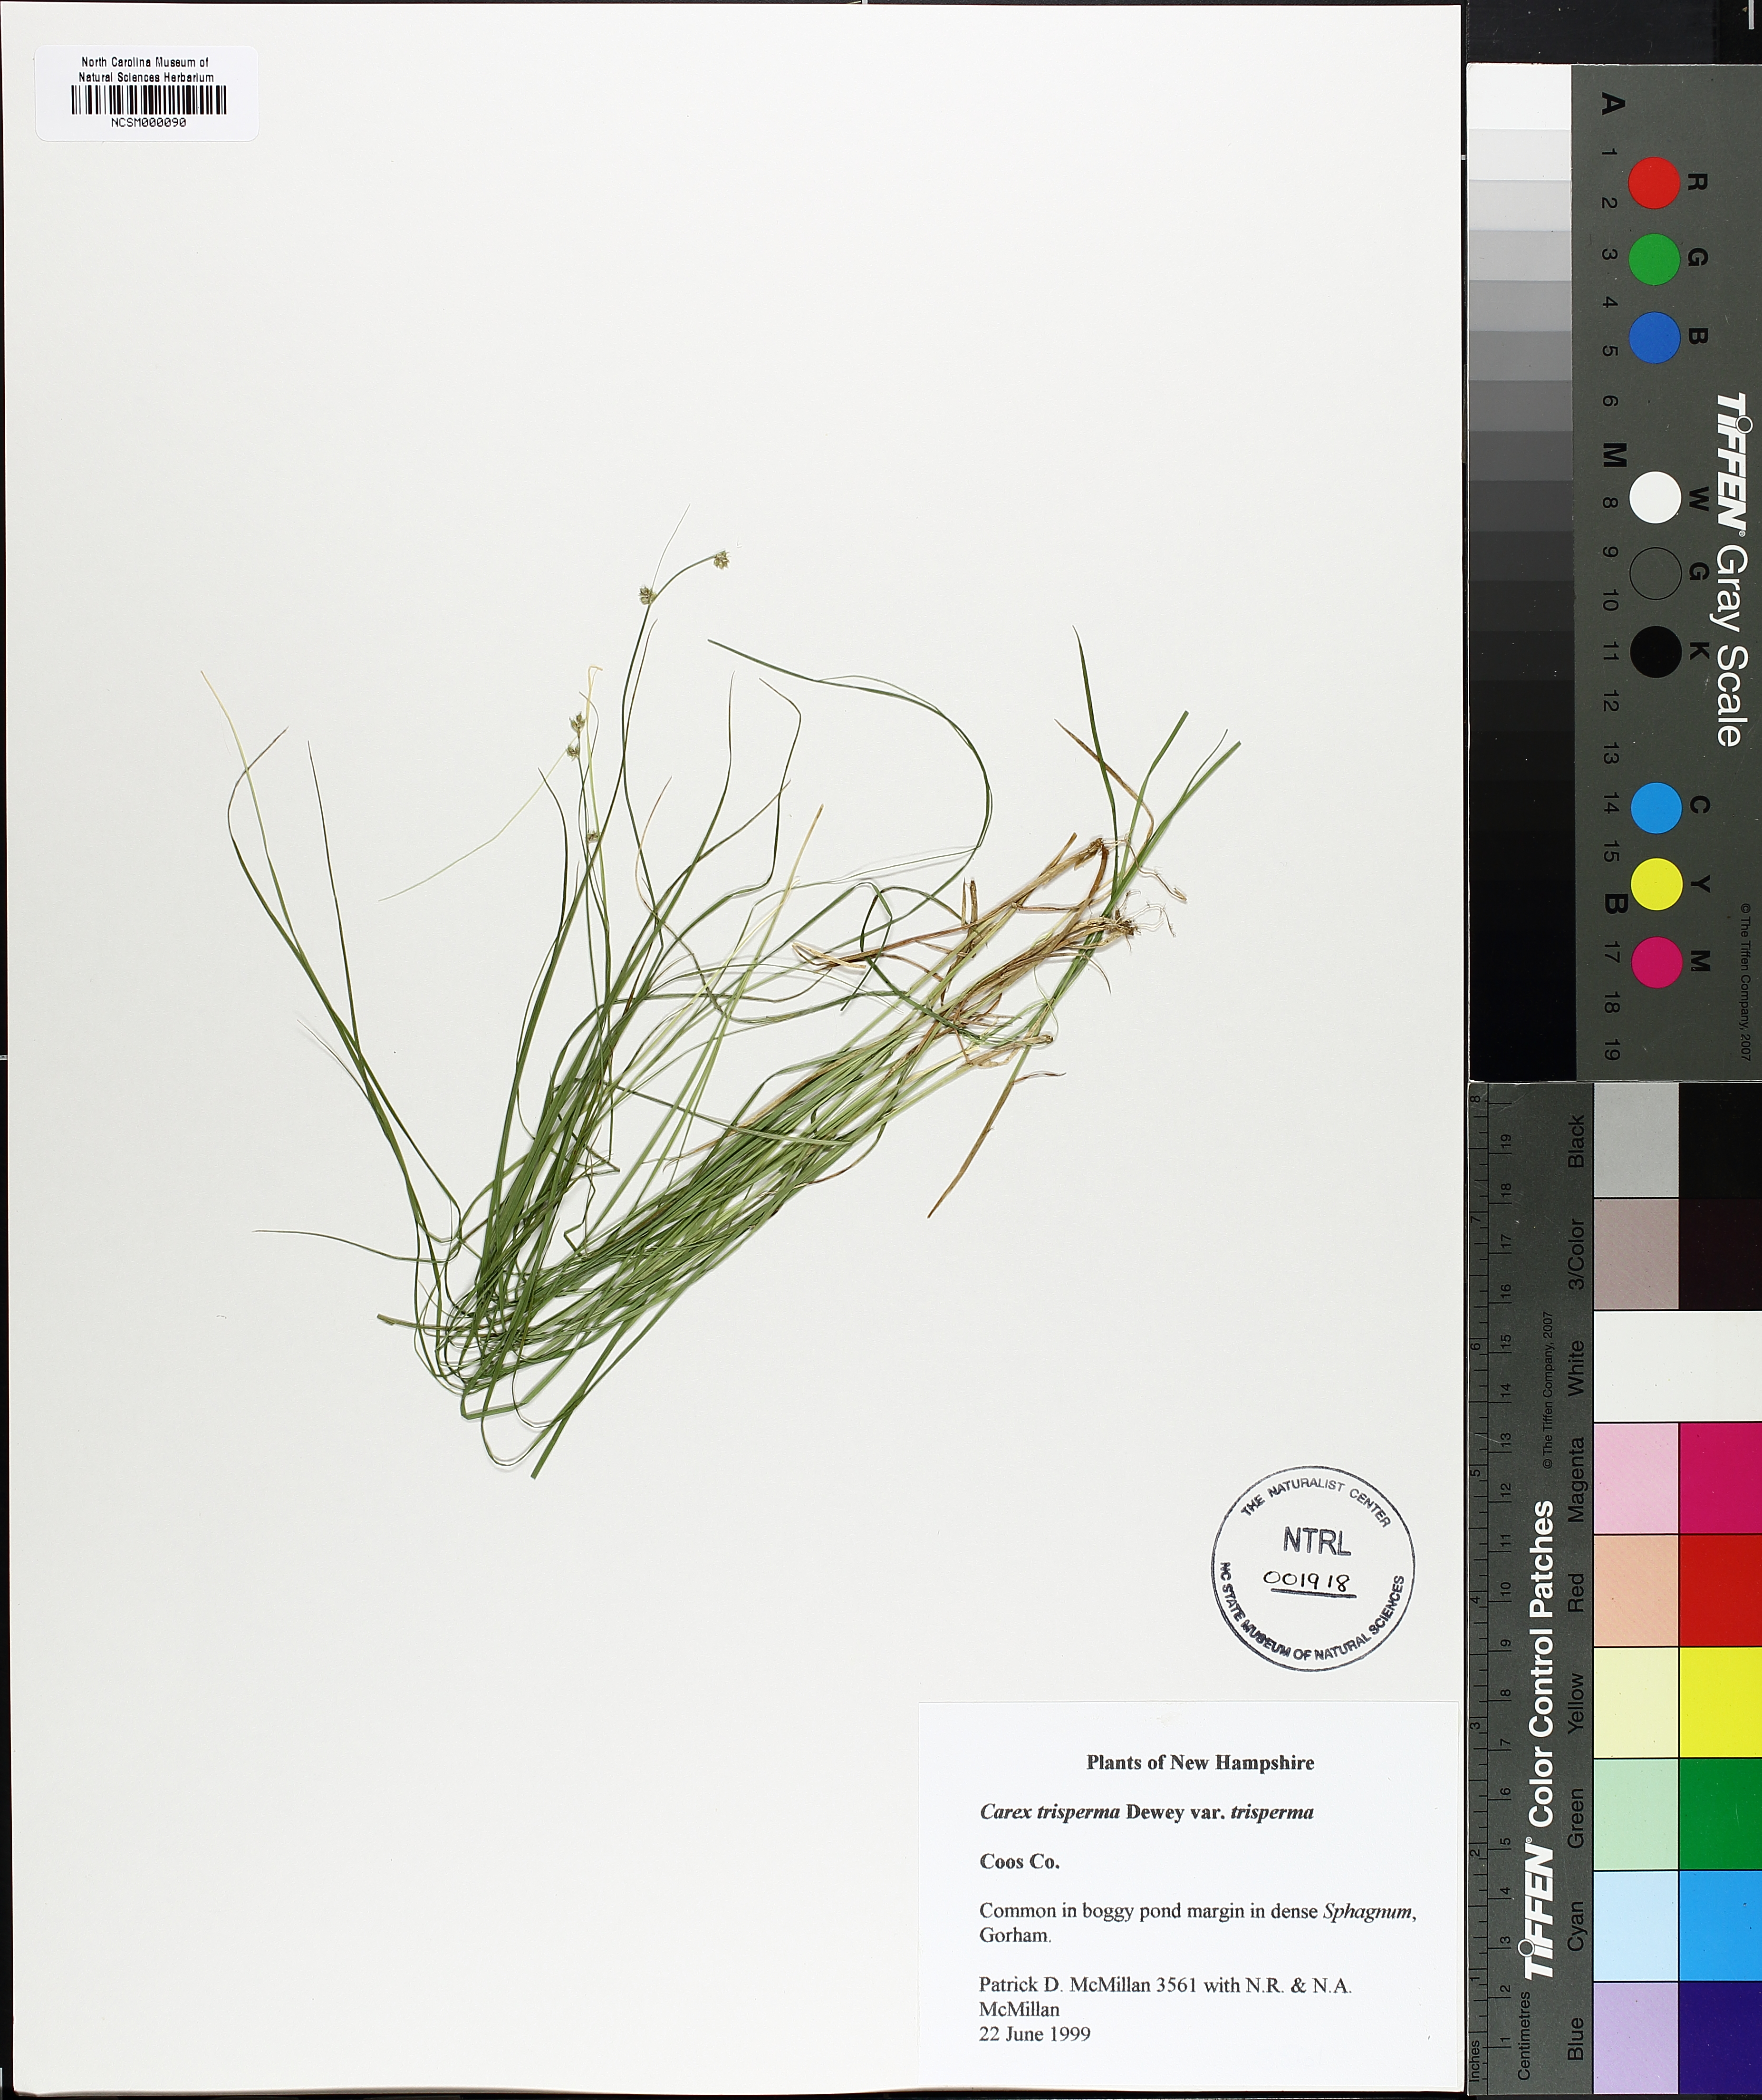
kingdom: Plantae
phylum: Tracheophyta
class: Liliopsida
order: Poales
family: Cyperaceae
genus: Carex
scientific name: Carex trisperma
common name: Three-seeded sedge
